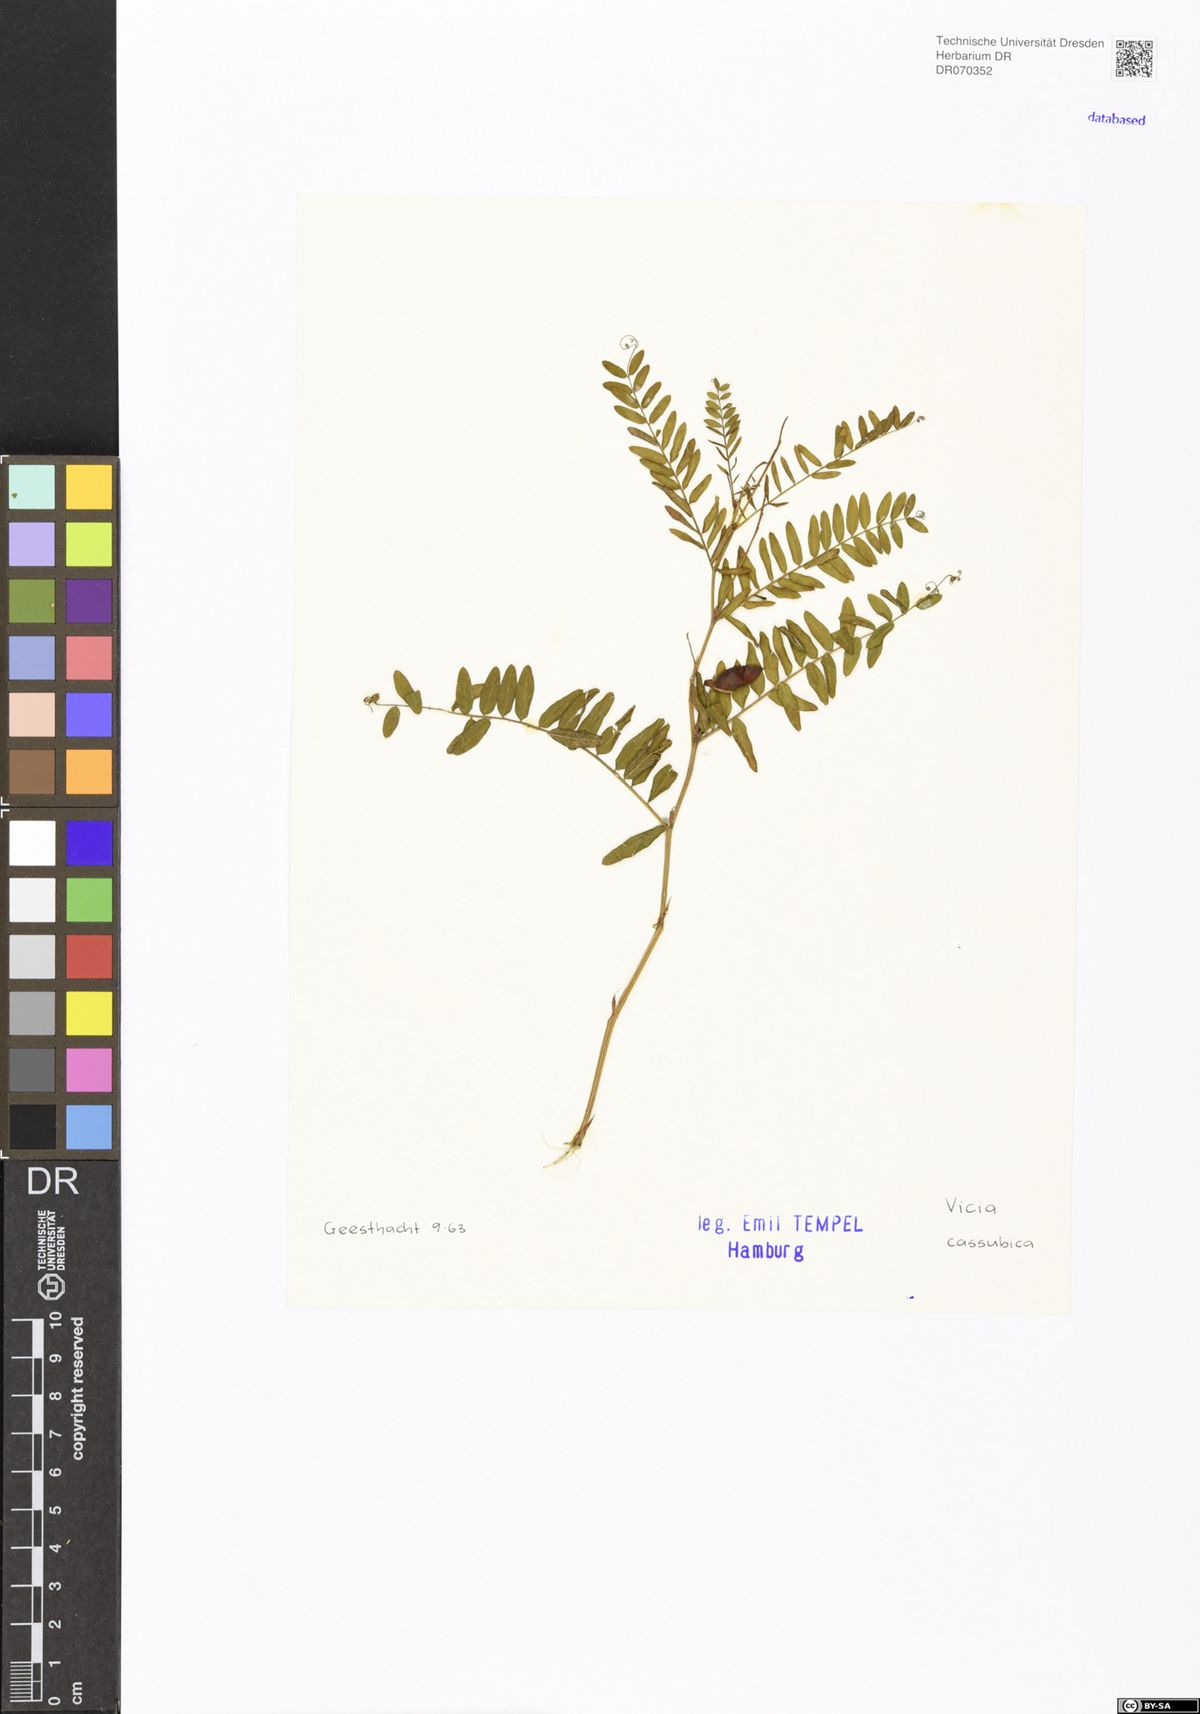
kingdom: Plantae
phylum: Tracheophyta
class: Magnoliopsida
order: Fabales
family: Fabaceae
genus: Vicia
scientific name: Vicia cassubica
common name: Danzig vetch
